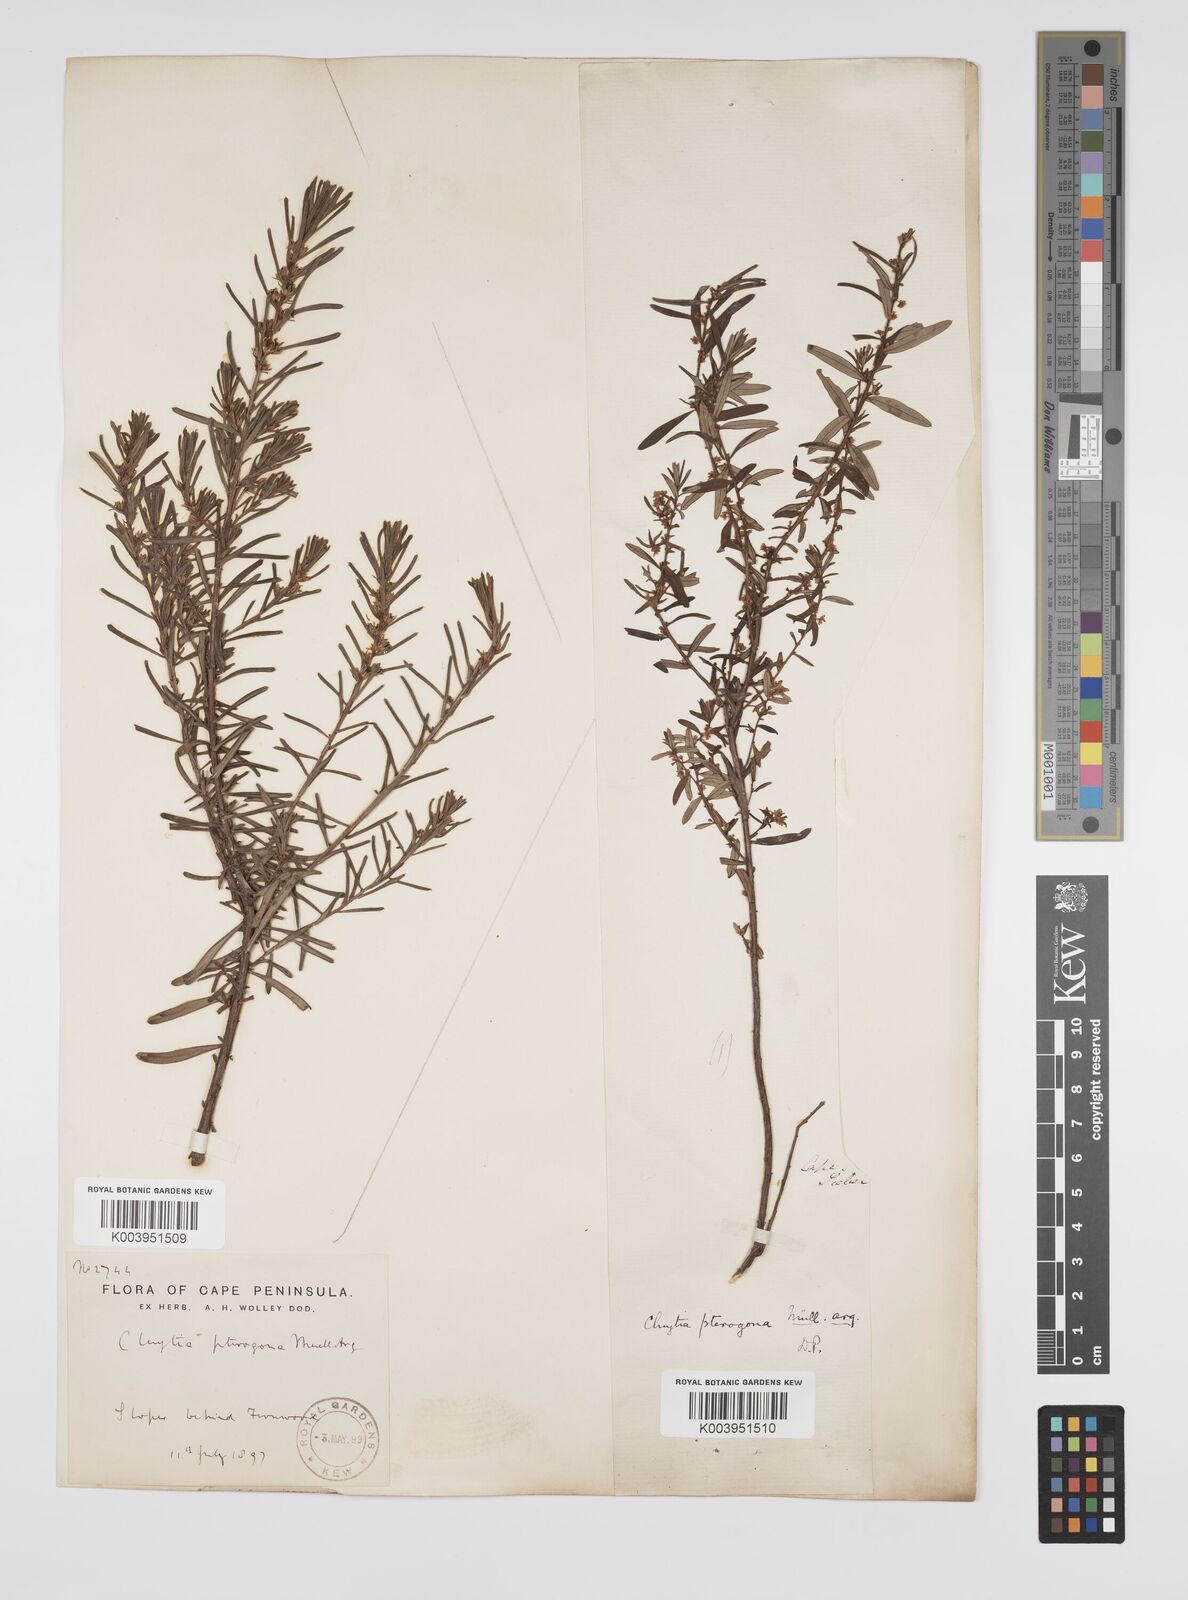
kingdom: Plantae
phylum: Tracheophyta
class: Magnoliopsida
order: Malpighiales
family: Peraceae
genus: Clutia
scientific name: Clutia pterogona
